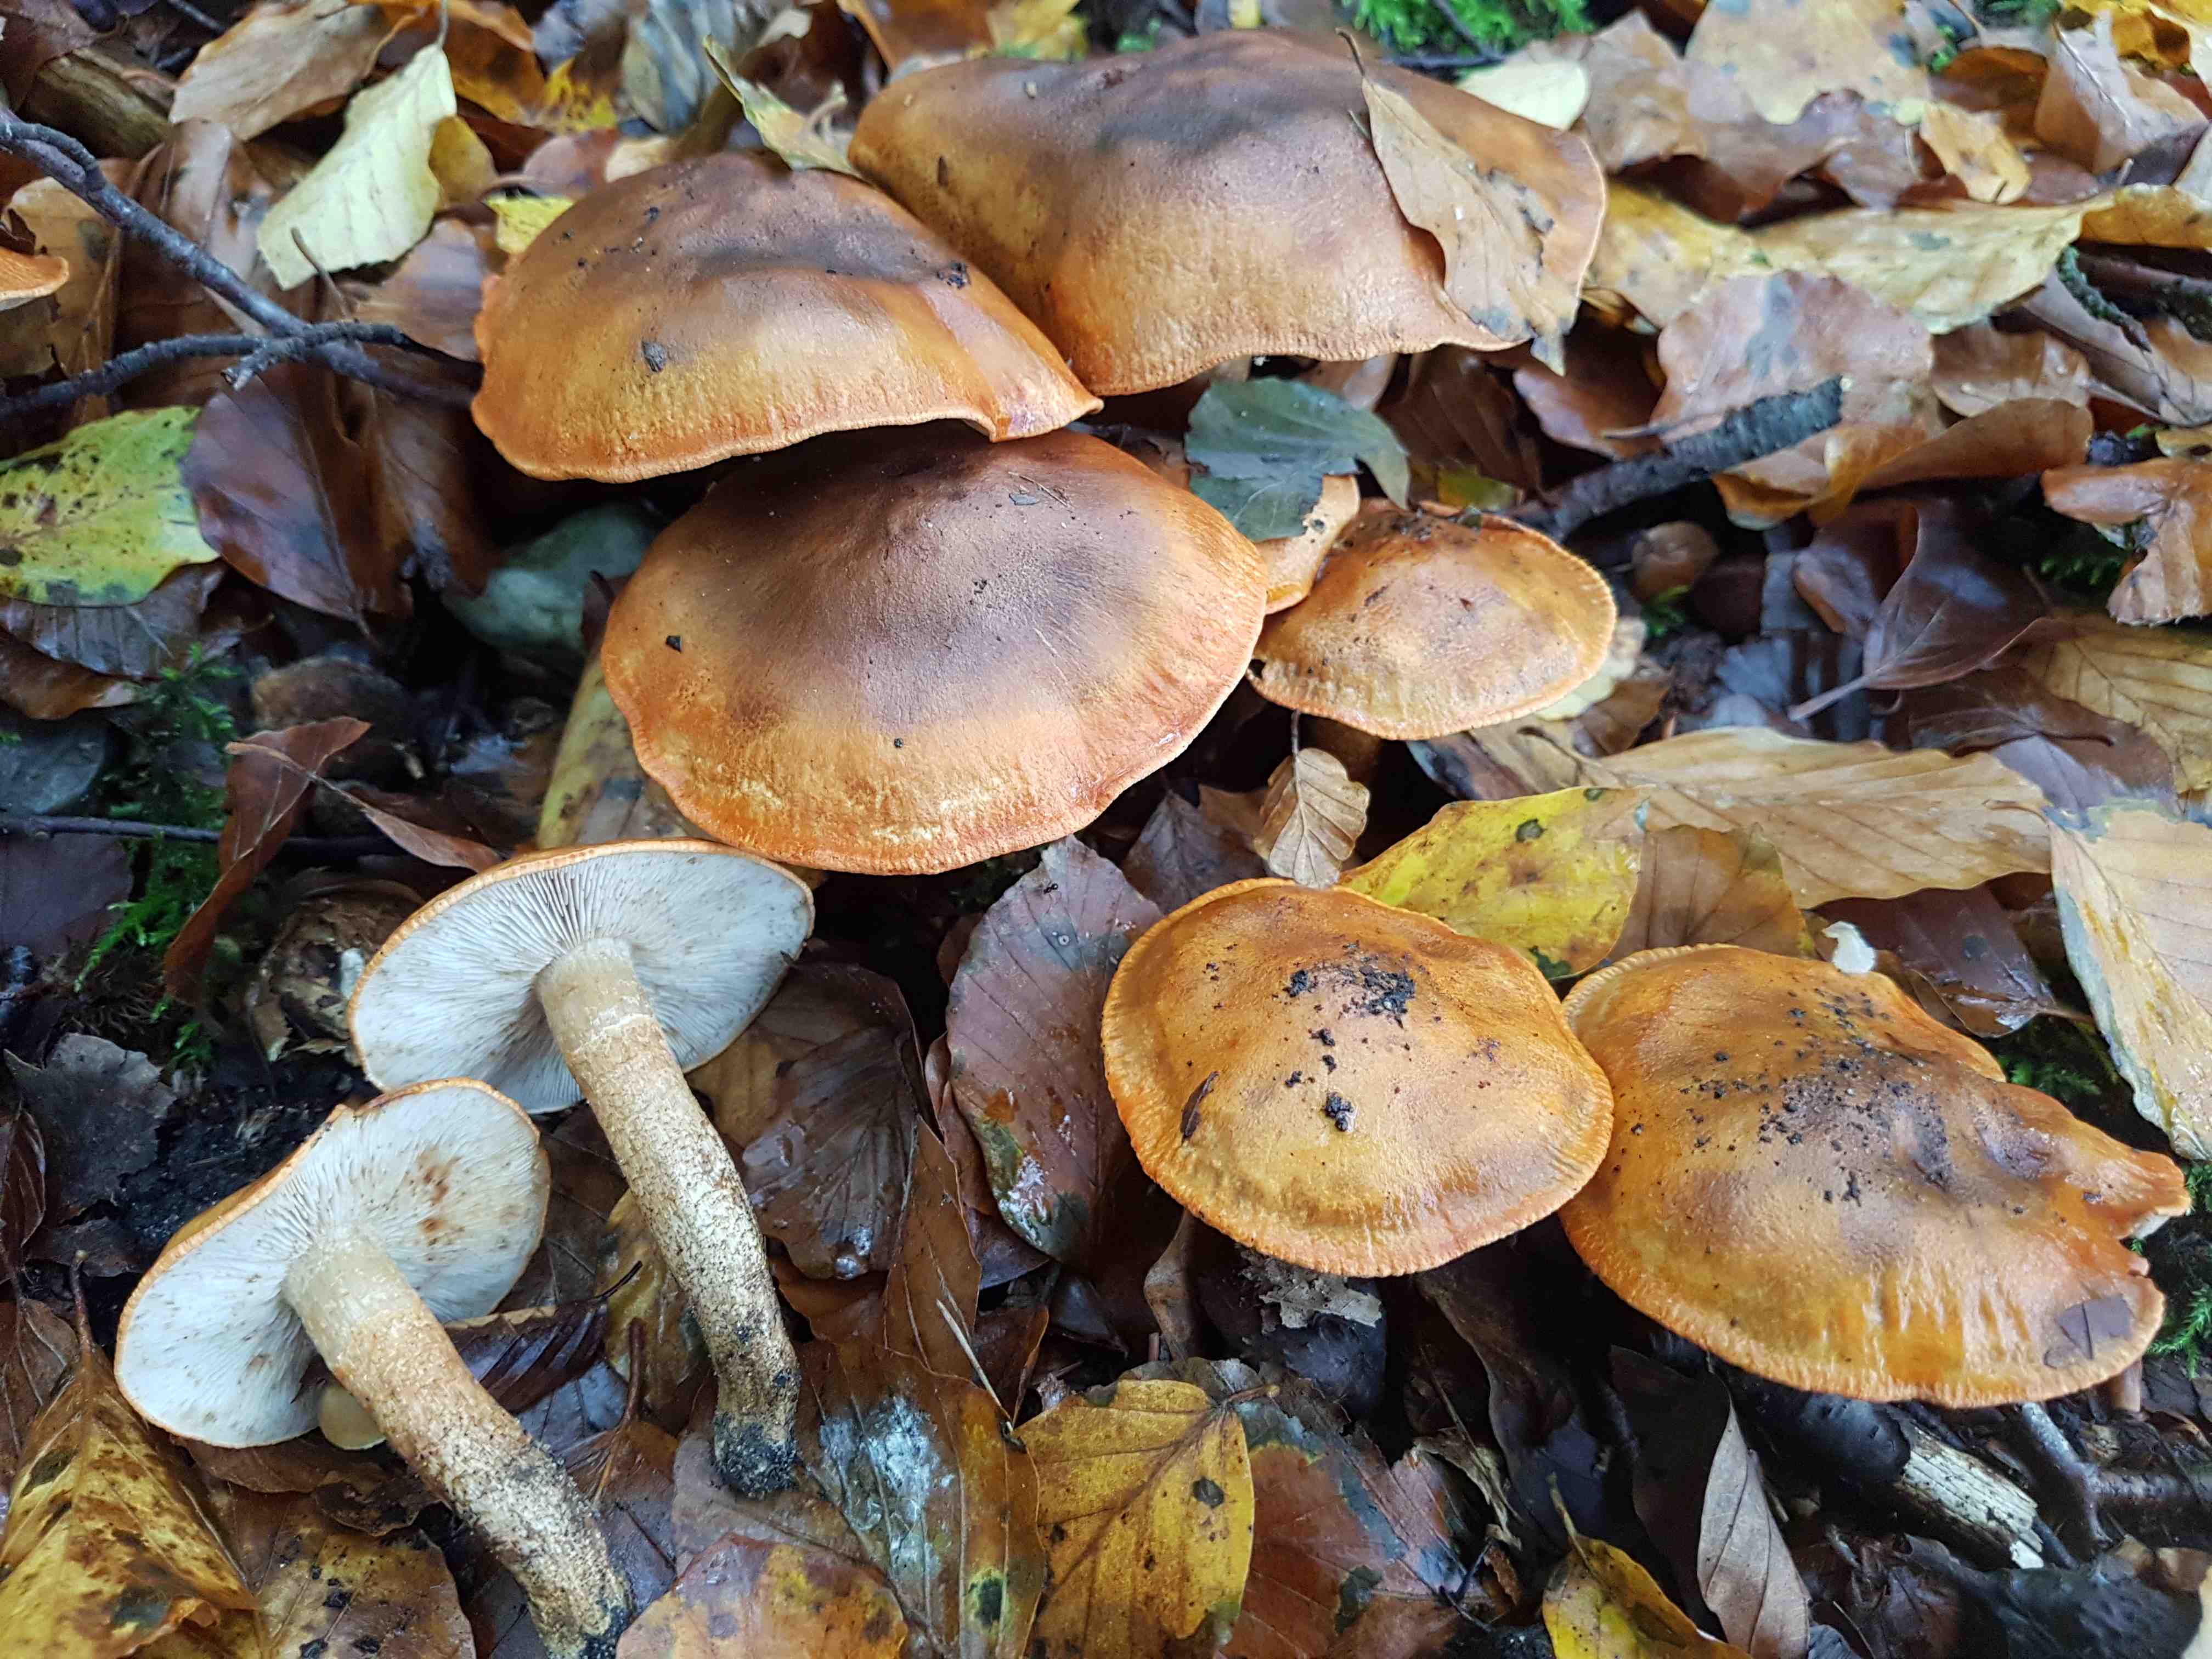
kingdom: Fungi
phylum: Basidiomycota
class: Agaricomycetes
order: Agaricales
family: Tricholomataceae
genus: Tricholoma
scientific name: Tricholoma aurantium
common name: orangegul ridderhat
